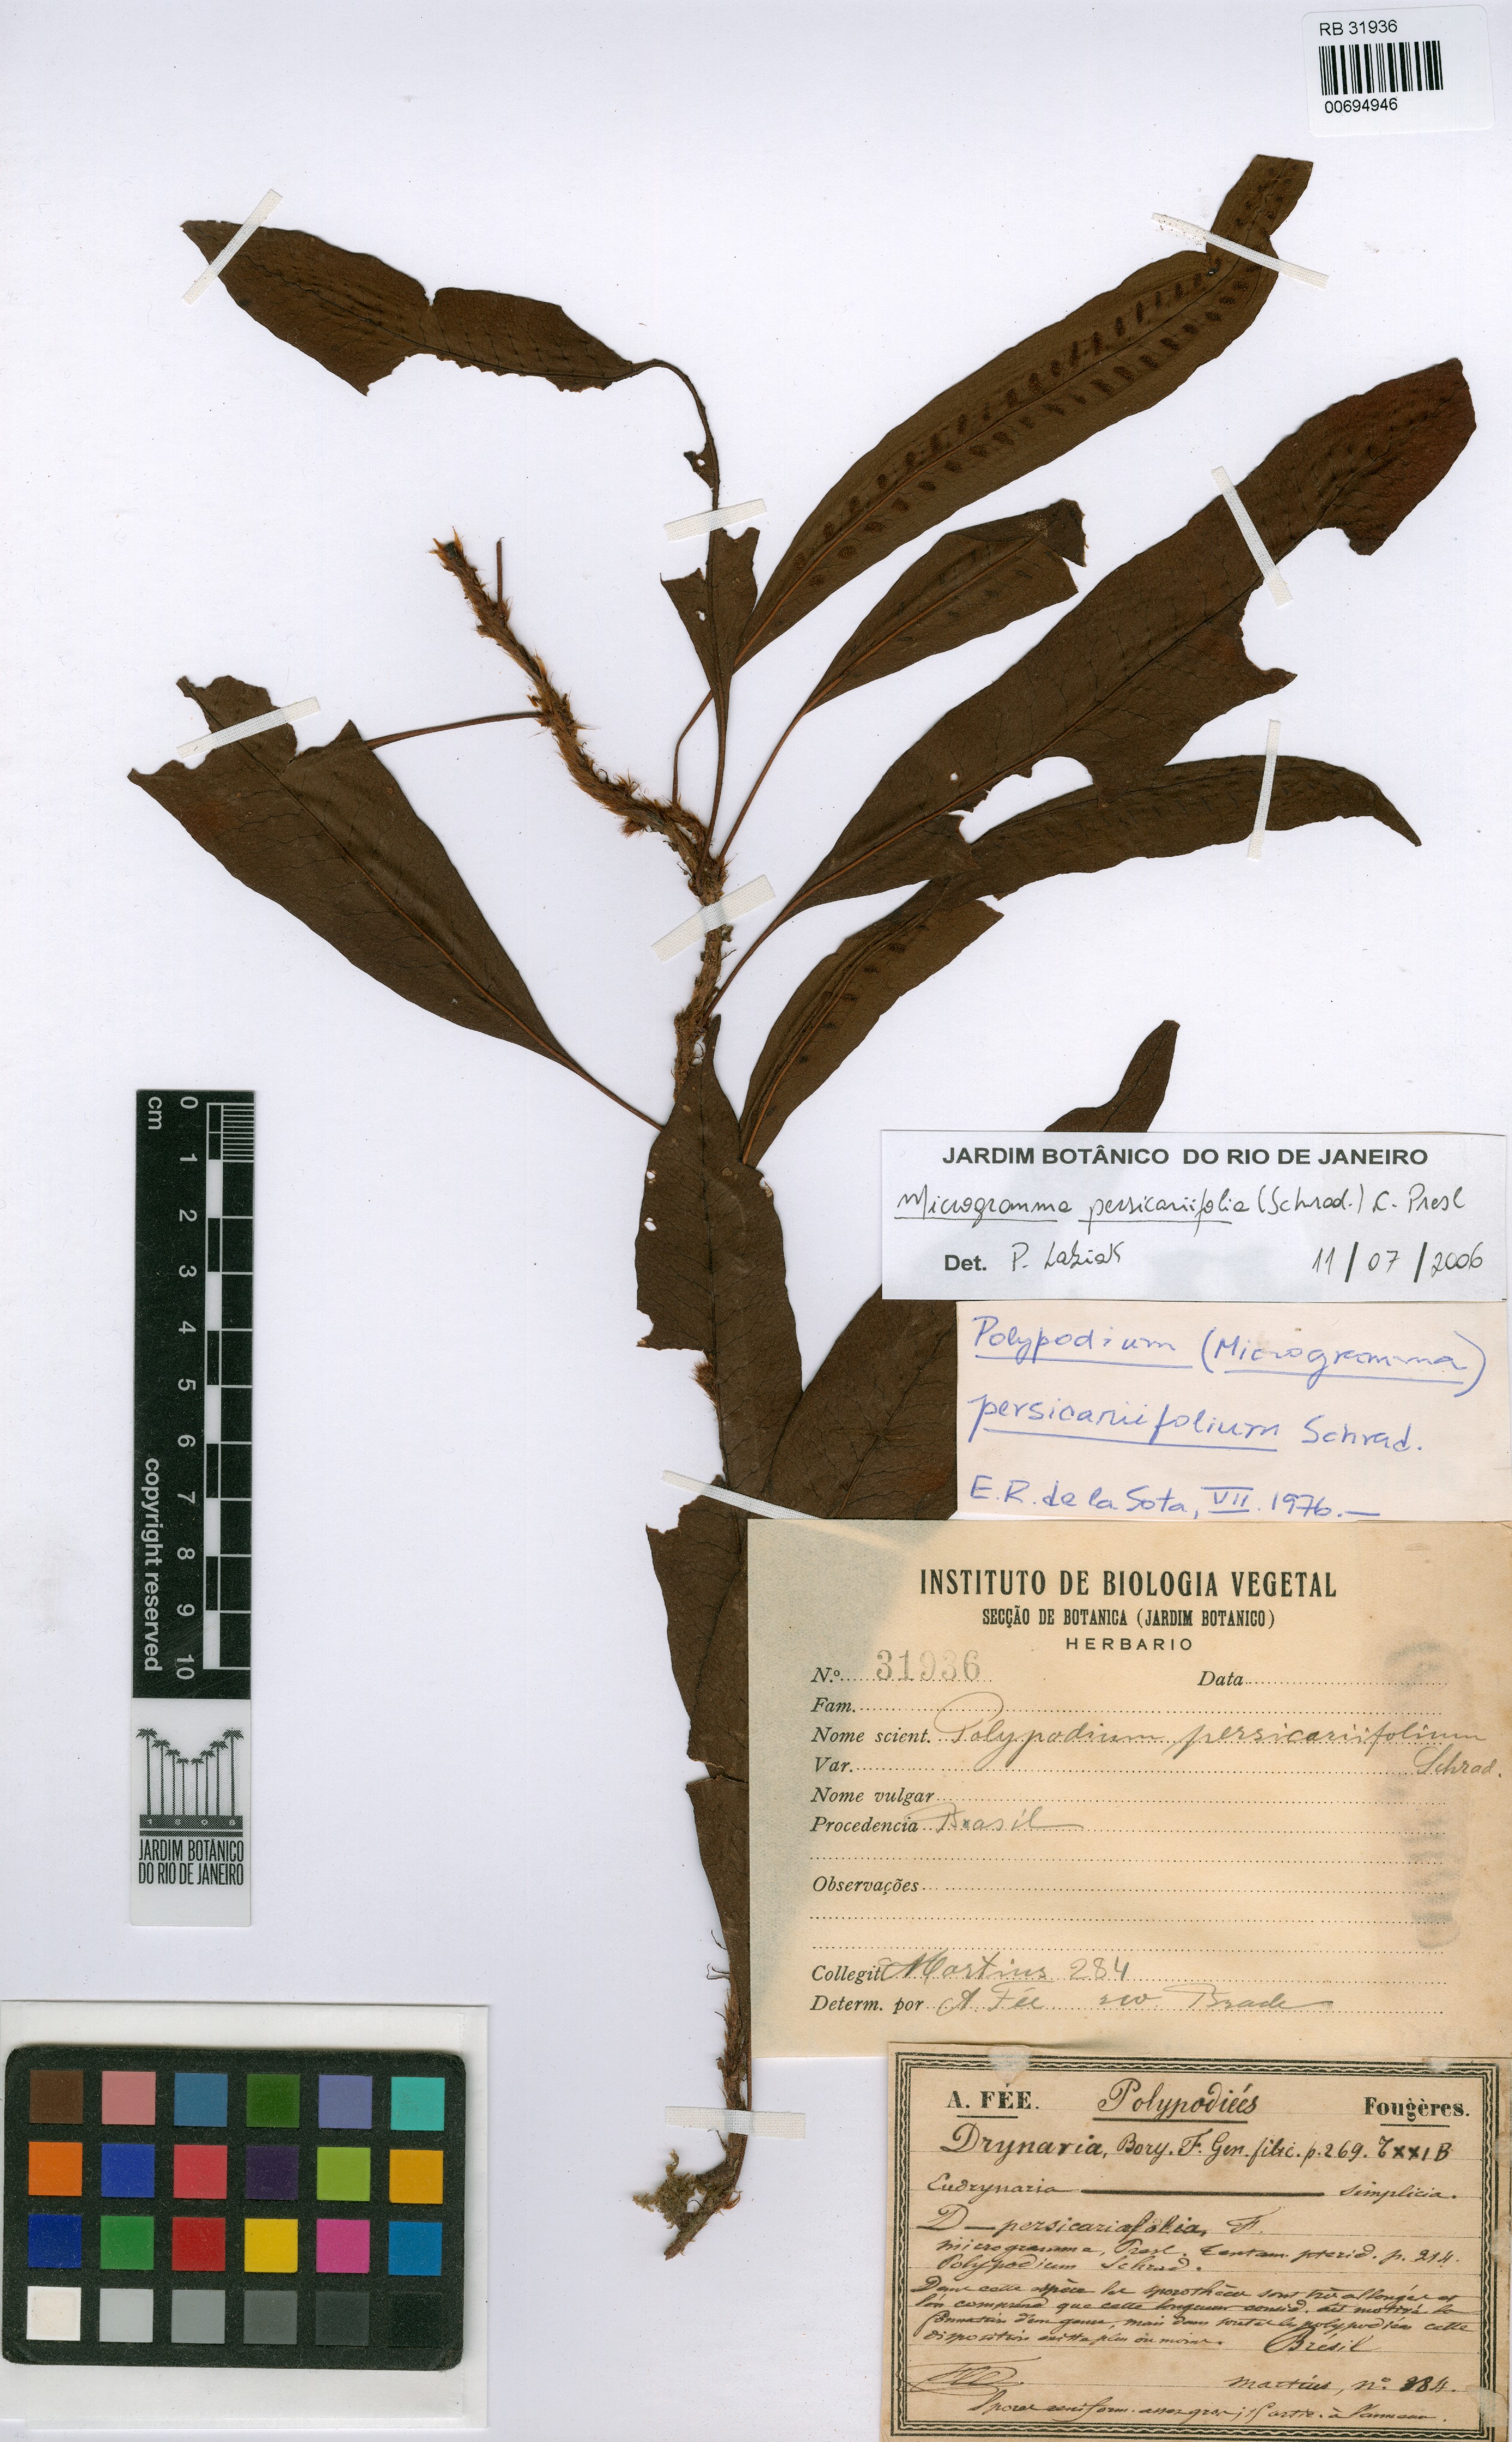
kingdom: Plantae
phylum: Tracheophyta
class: Polypodiopsida
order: Polypodiales
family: Polypodiaceae
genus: Microgramma
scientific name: Microgramma persicariifolia
